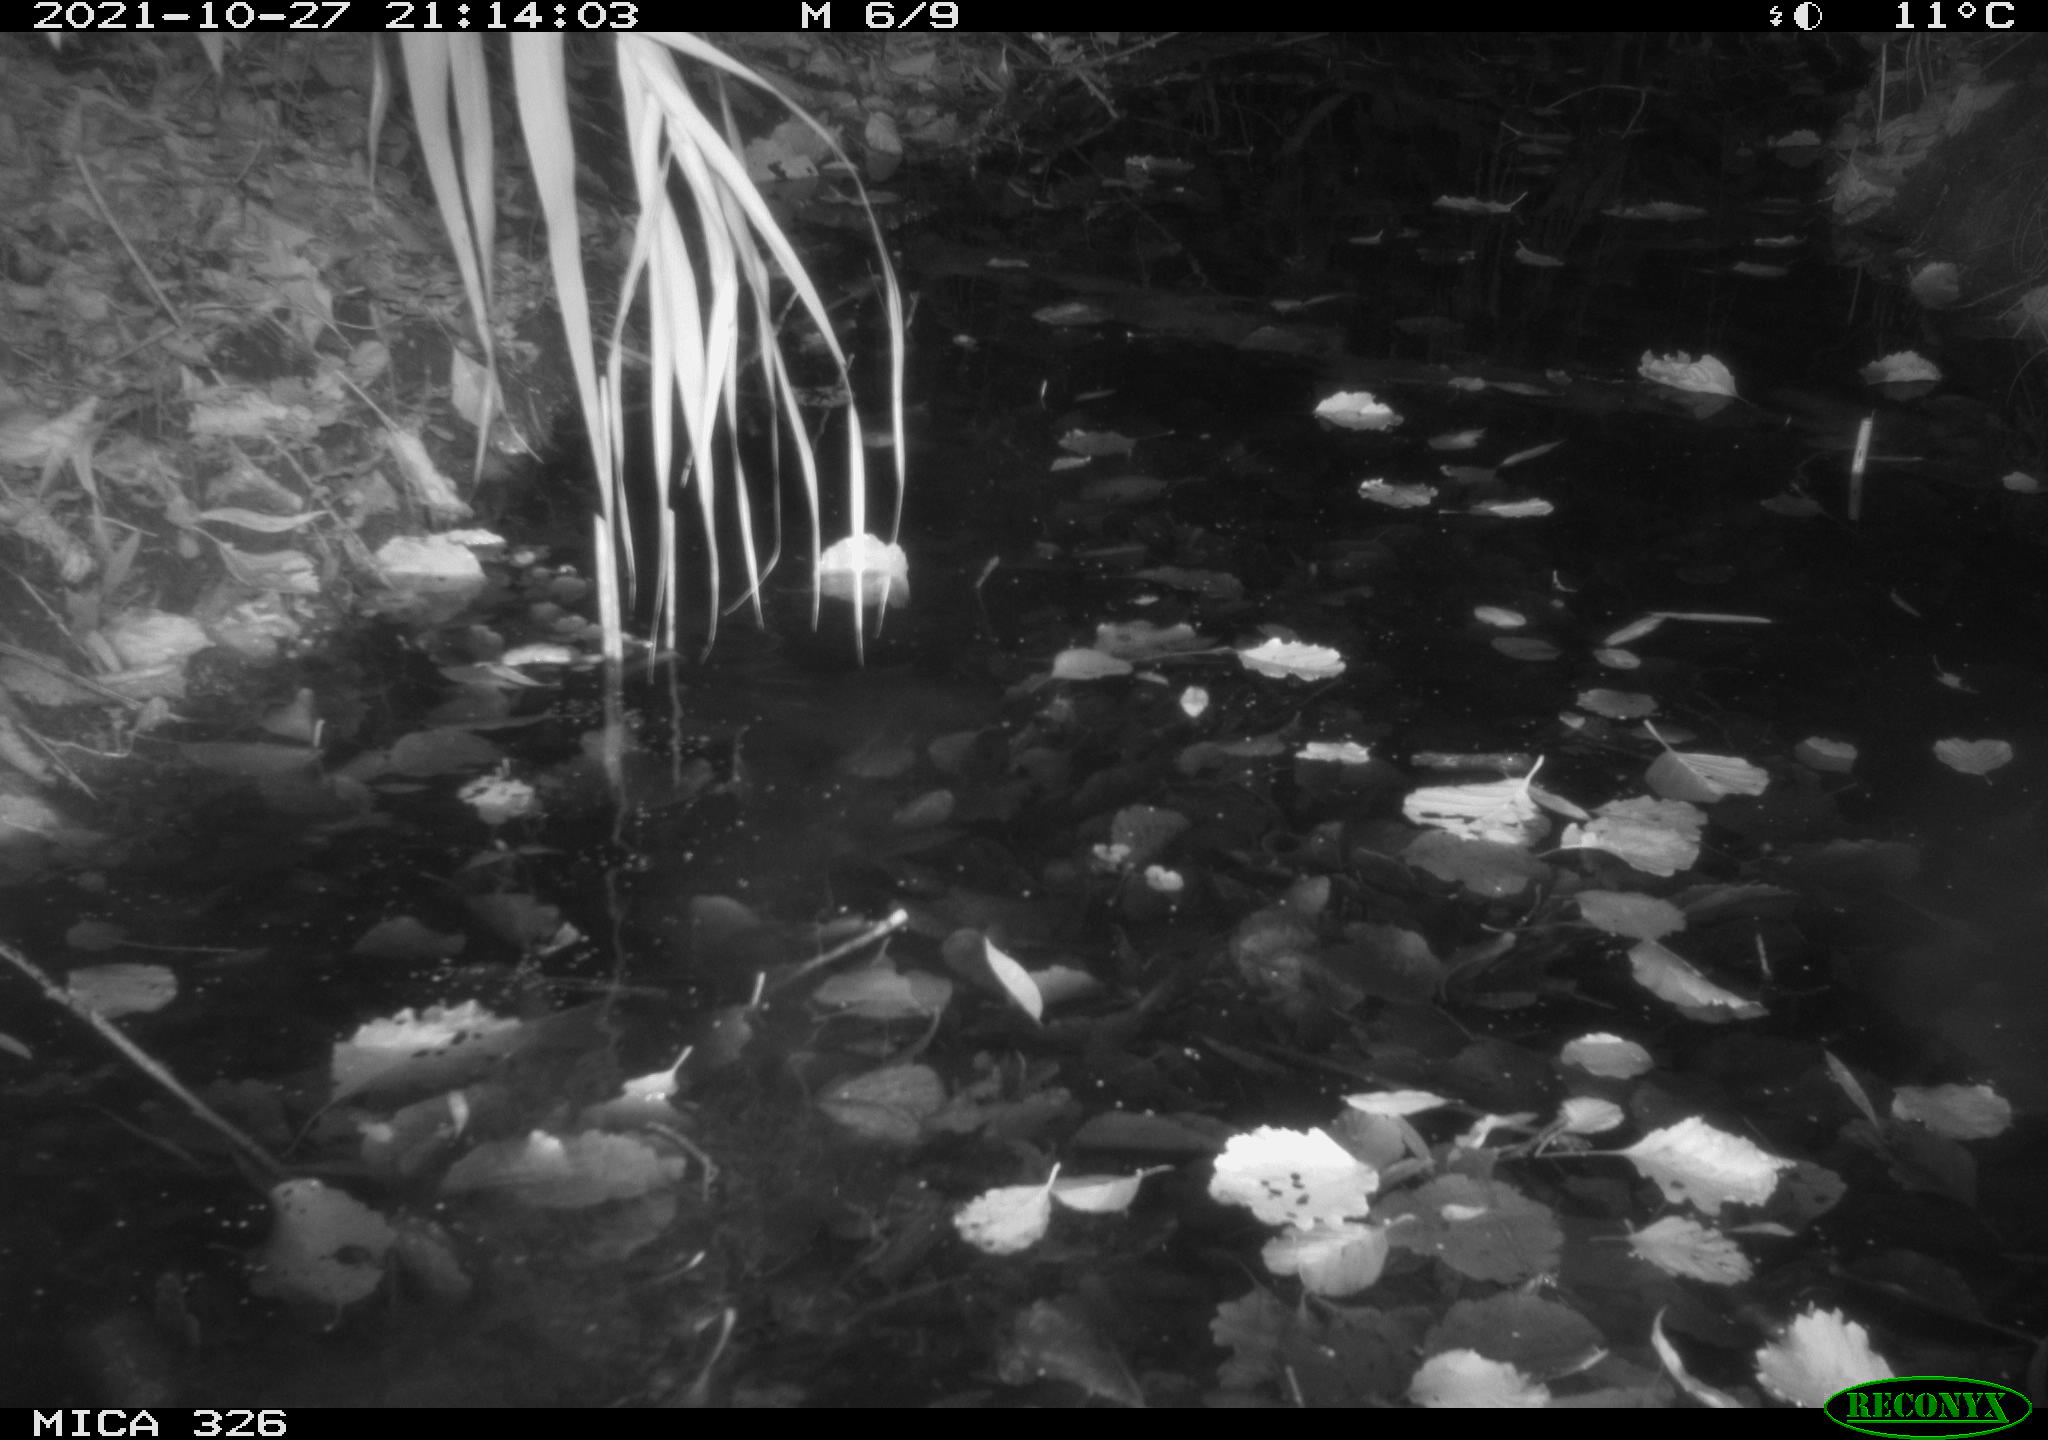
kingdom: Animalia
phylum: Chordata
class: Mammalia
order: Rodentia
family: Myocastoridae
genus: Myocastor
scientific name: Myocastor coypus
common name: Coypu
